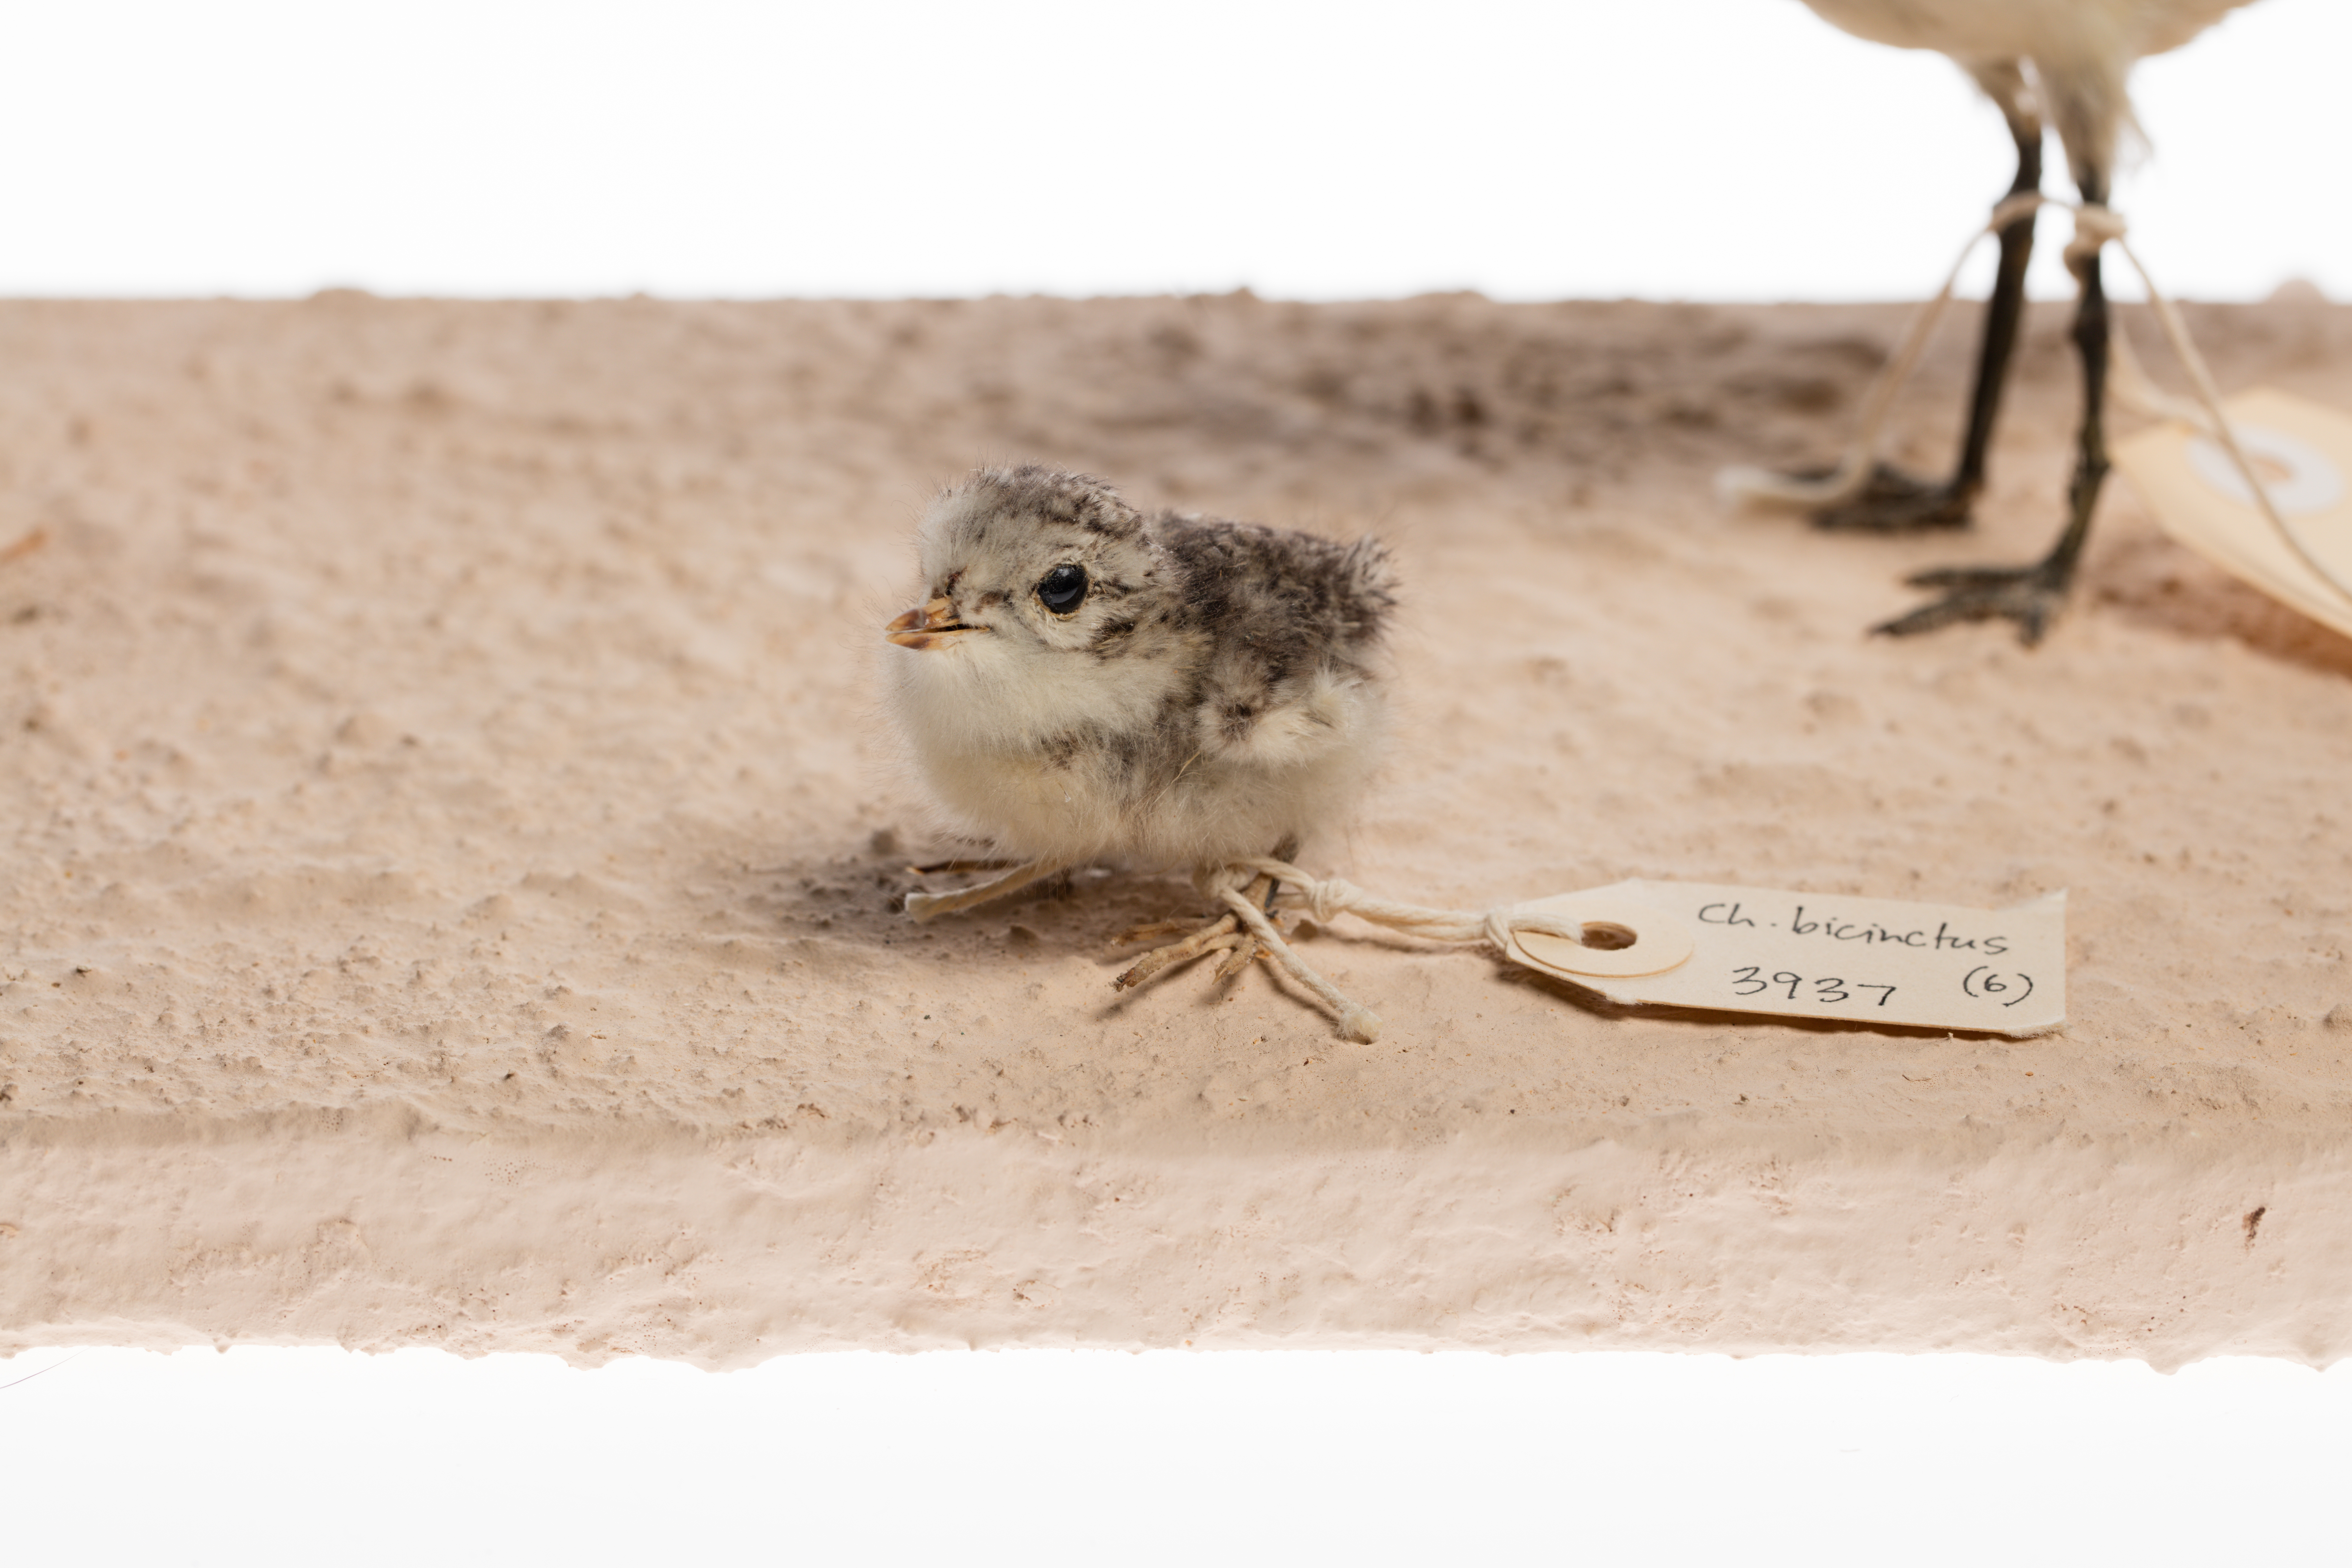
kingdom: Animalia
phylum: Chordata
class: Aves
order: Charadriiformes
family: Charadriidae
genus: Charadrius
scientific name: Charadrius bicinctus
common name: Double-banded plover
